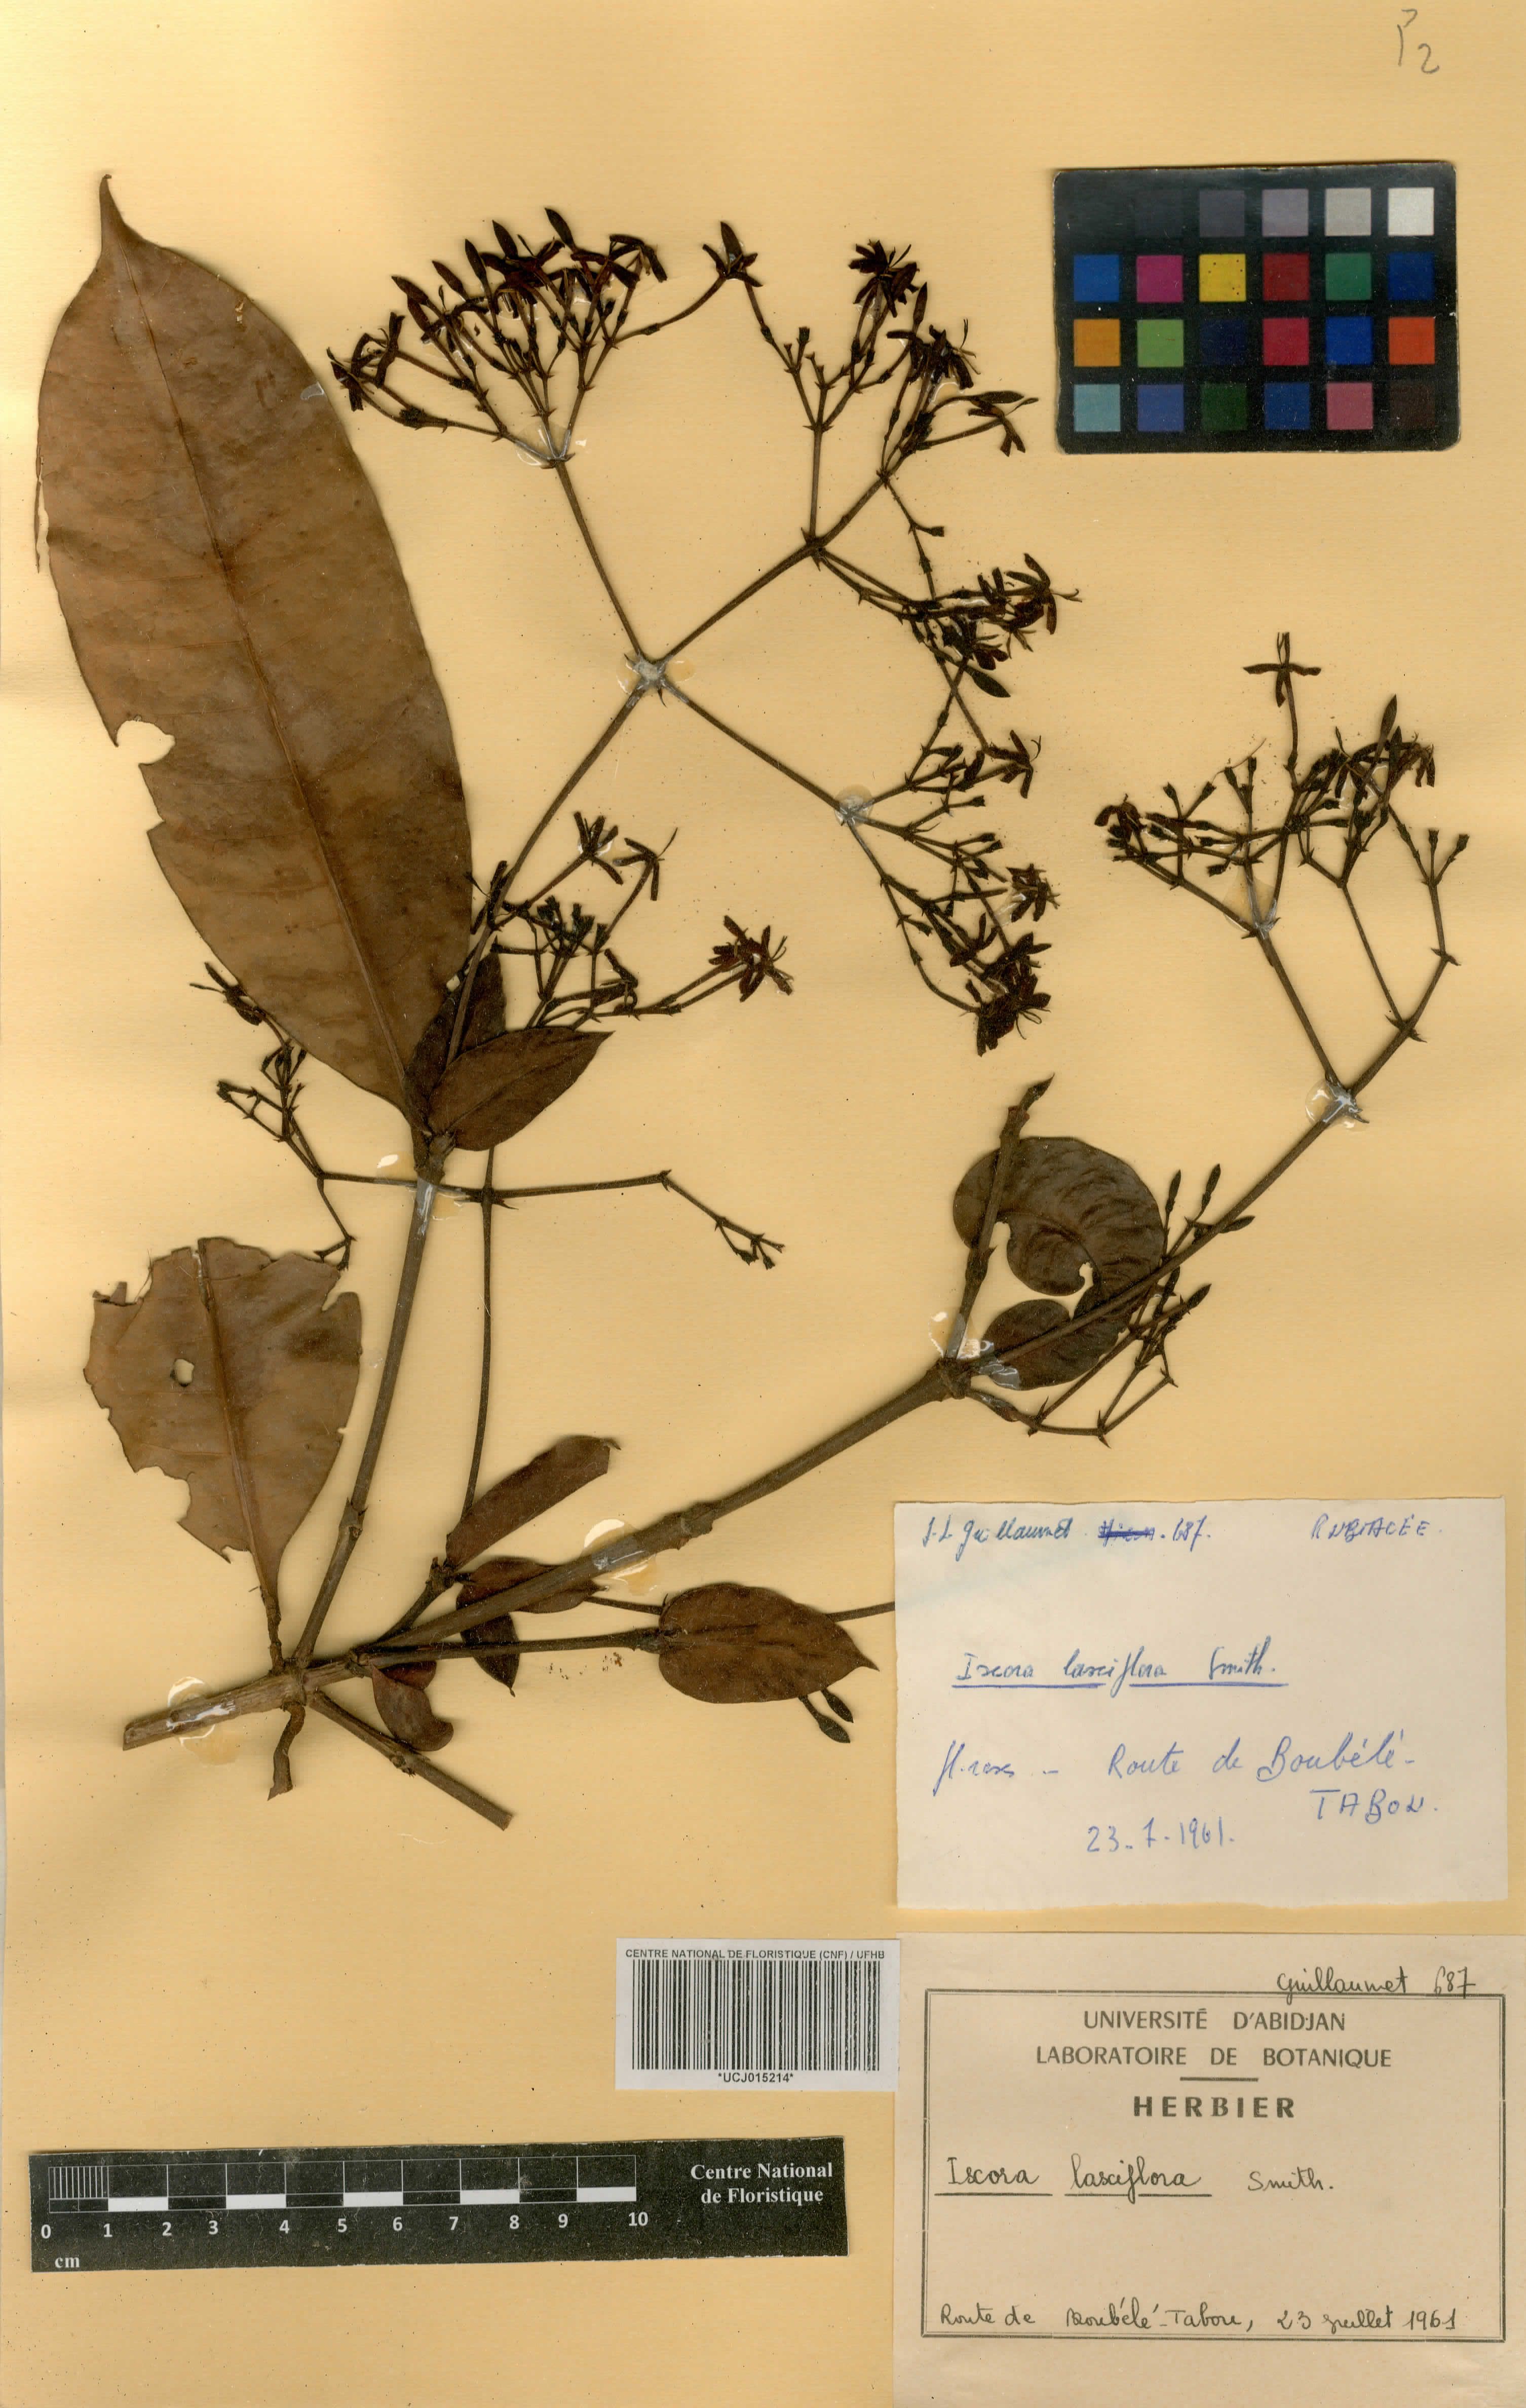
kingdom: Plantae
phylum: Tracheophyta
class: Magnoliopsida
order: Gentianales
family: Rubiaceae
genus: Ixora
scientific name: Ixora laxiflora
